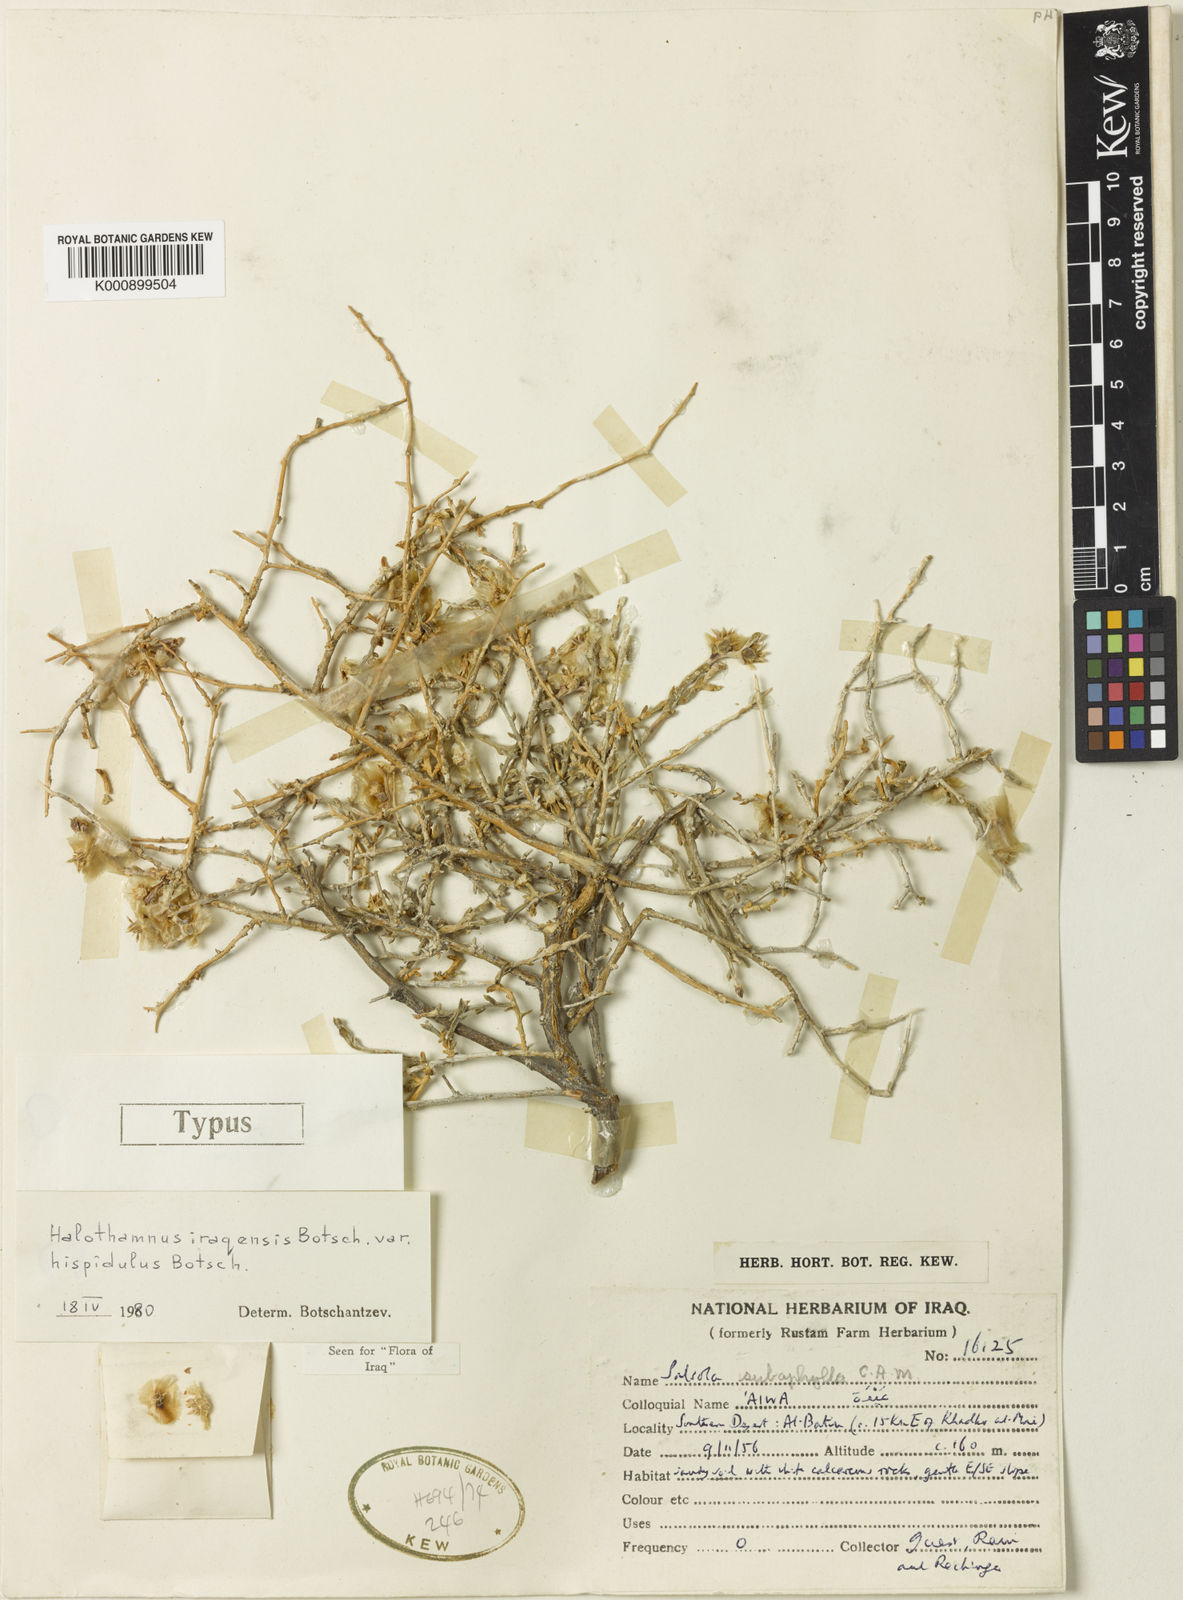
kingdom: Plantae
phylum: Tracheophyta
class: Magnoliopsida
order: Caryophyllales
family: Amaranthaceae
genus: Halothamnus
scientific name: Halothamnus iraqensis
